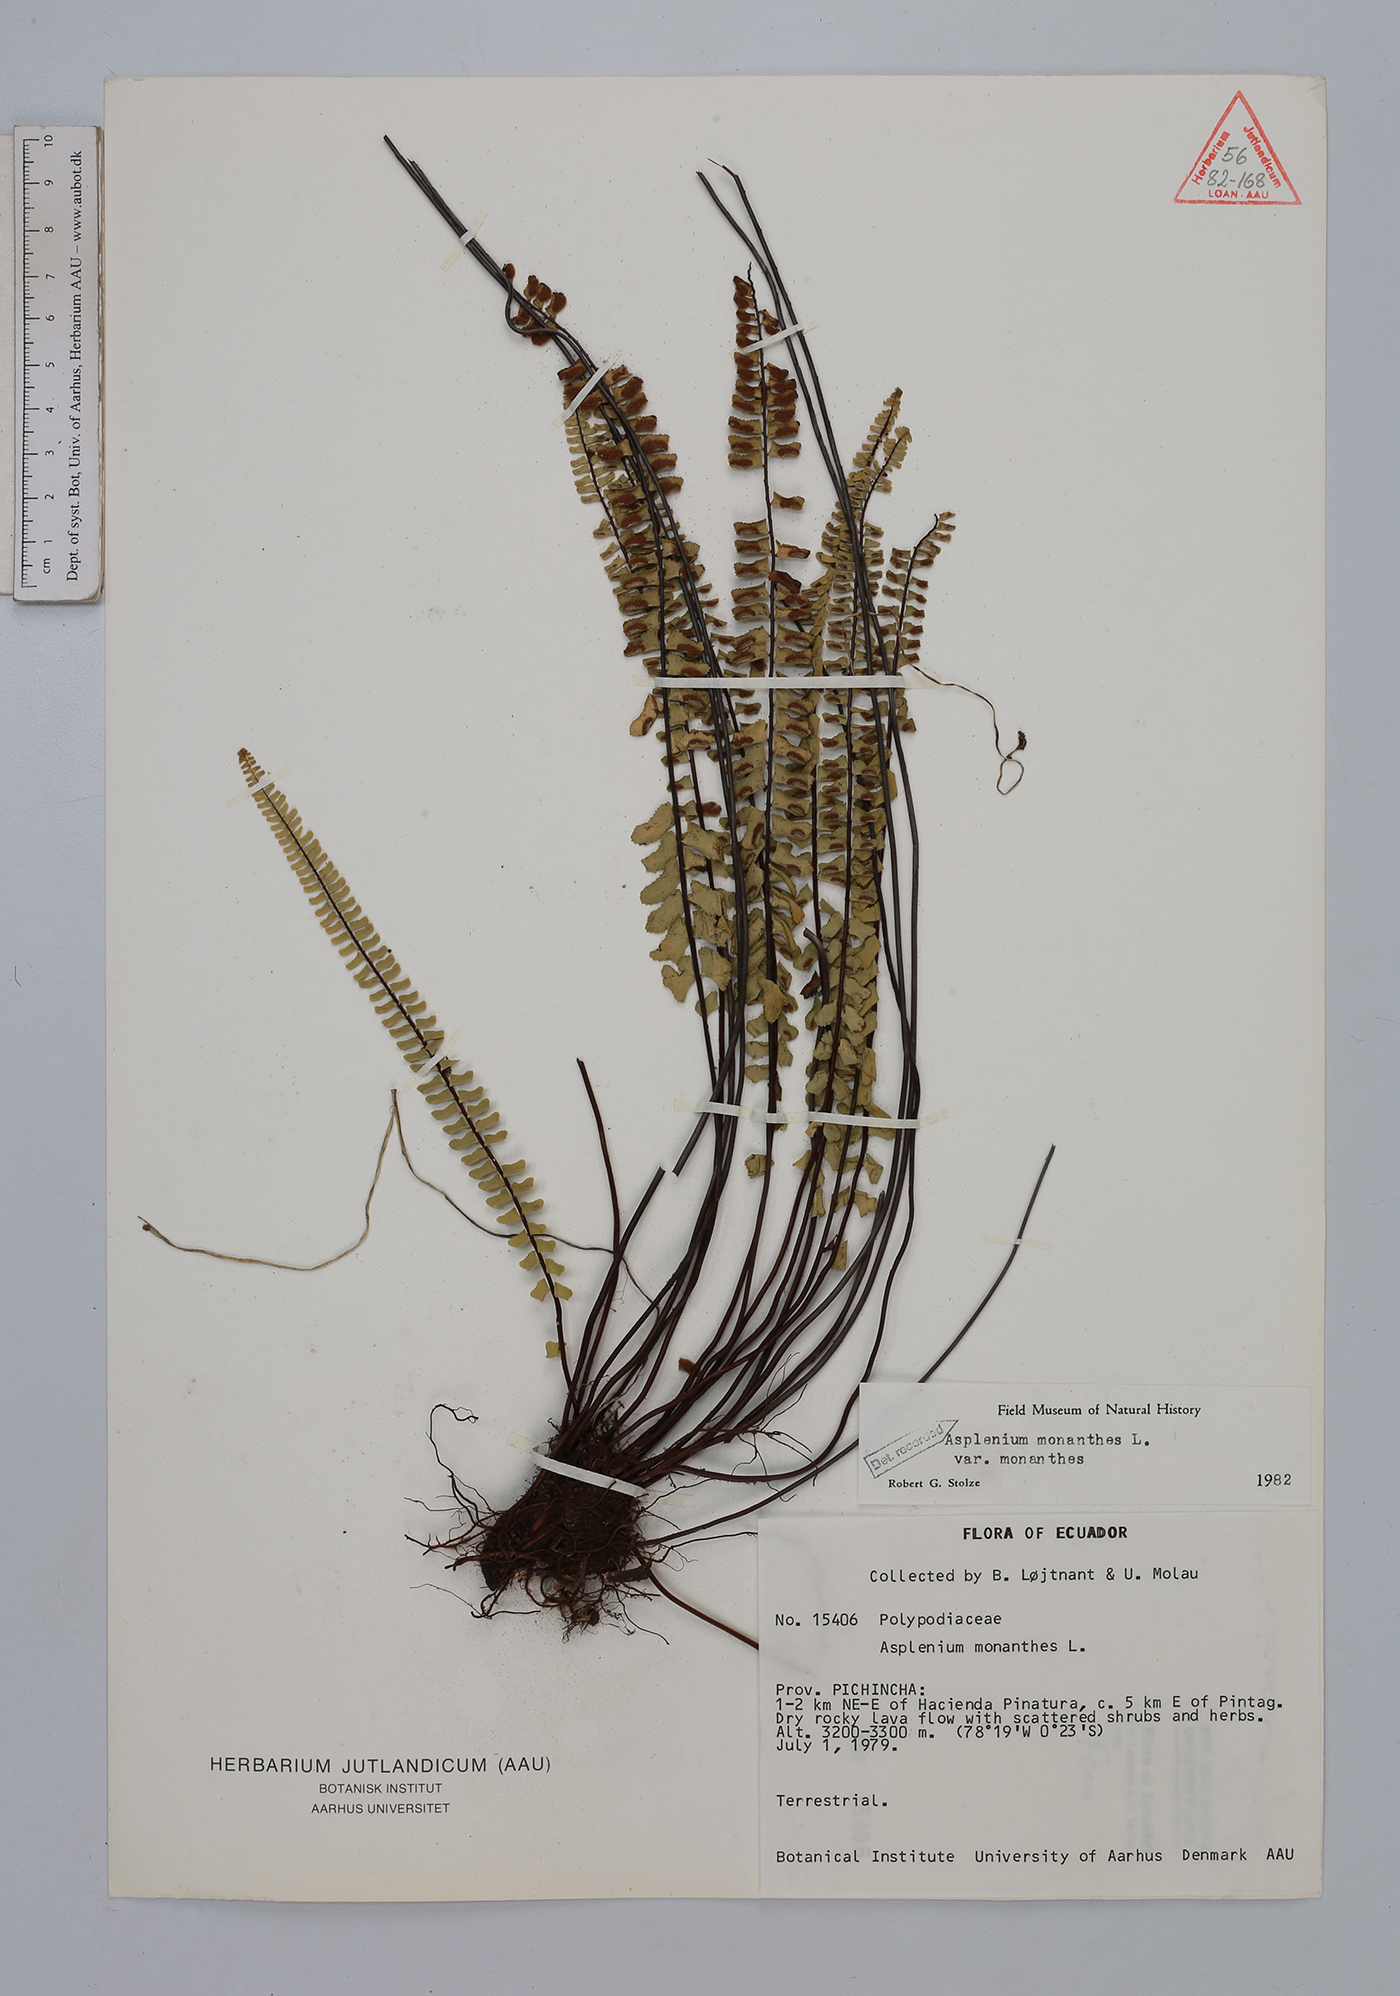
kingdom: Plantae
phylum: Tracheophyta
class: Polypodiopsida
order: Polypodiales
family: Aspleniaceae
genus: Asplenium
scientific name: Asplenium monanthes
